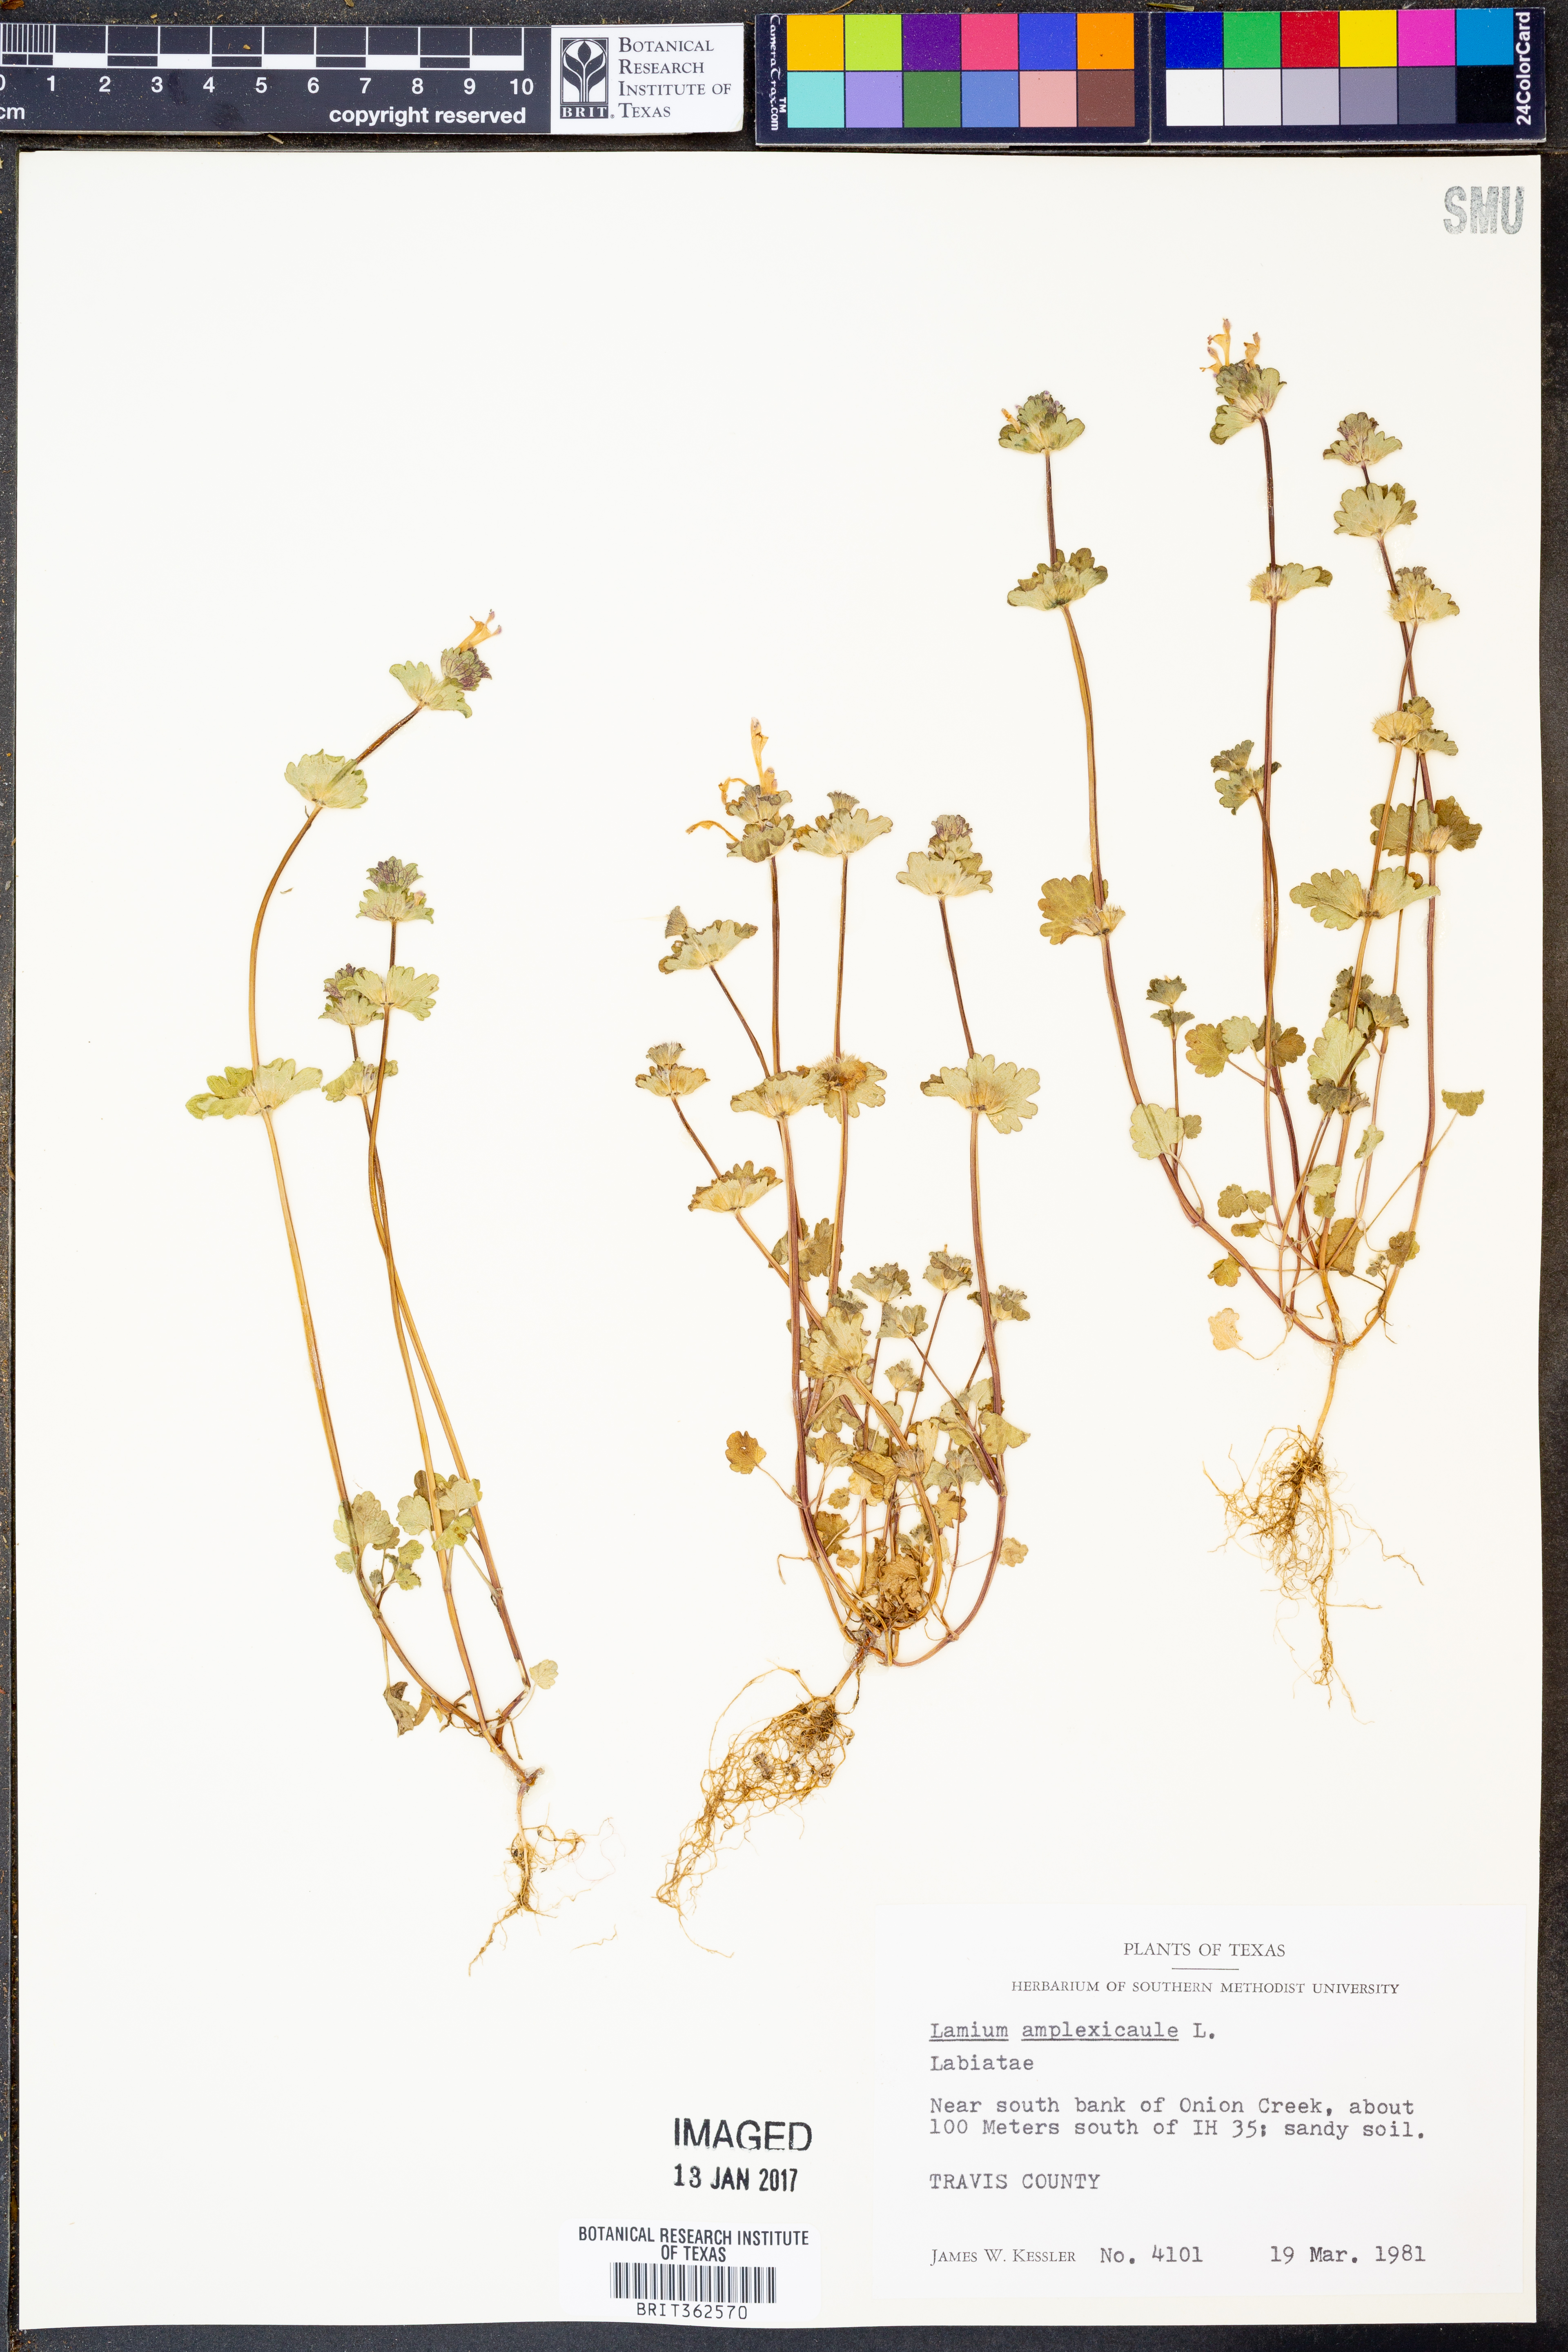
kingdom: Plantae
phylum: Tracheophyta
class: Magnoliopsida
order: Lamiales
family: Lamiaceae
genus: Lamium
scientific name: Lamium amplexicaule
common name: Henbit dead-nettle
